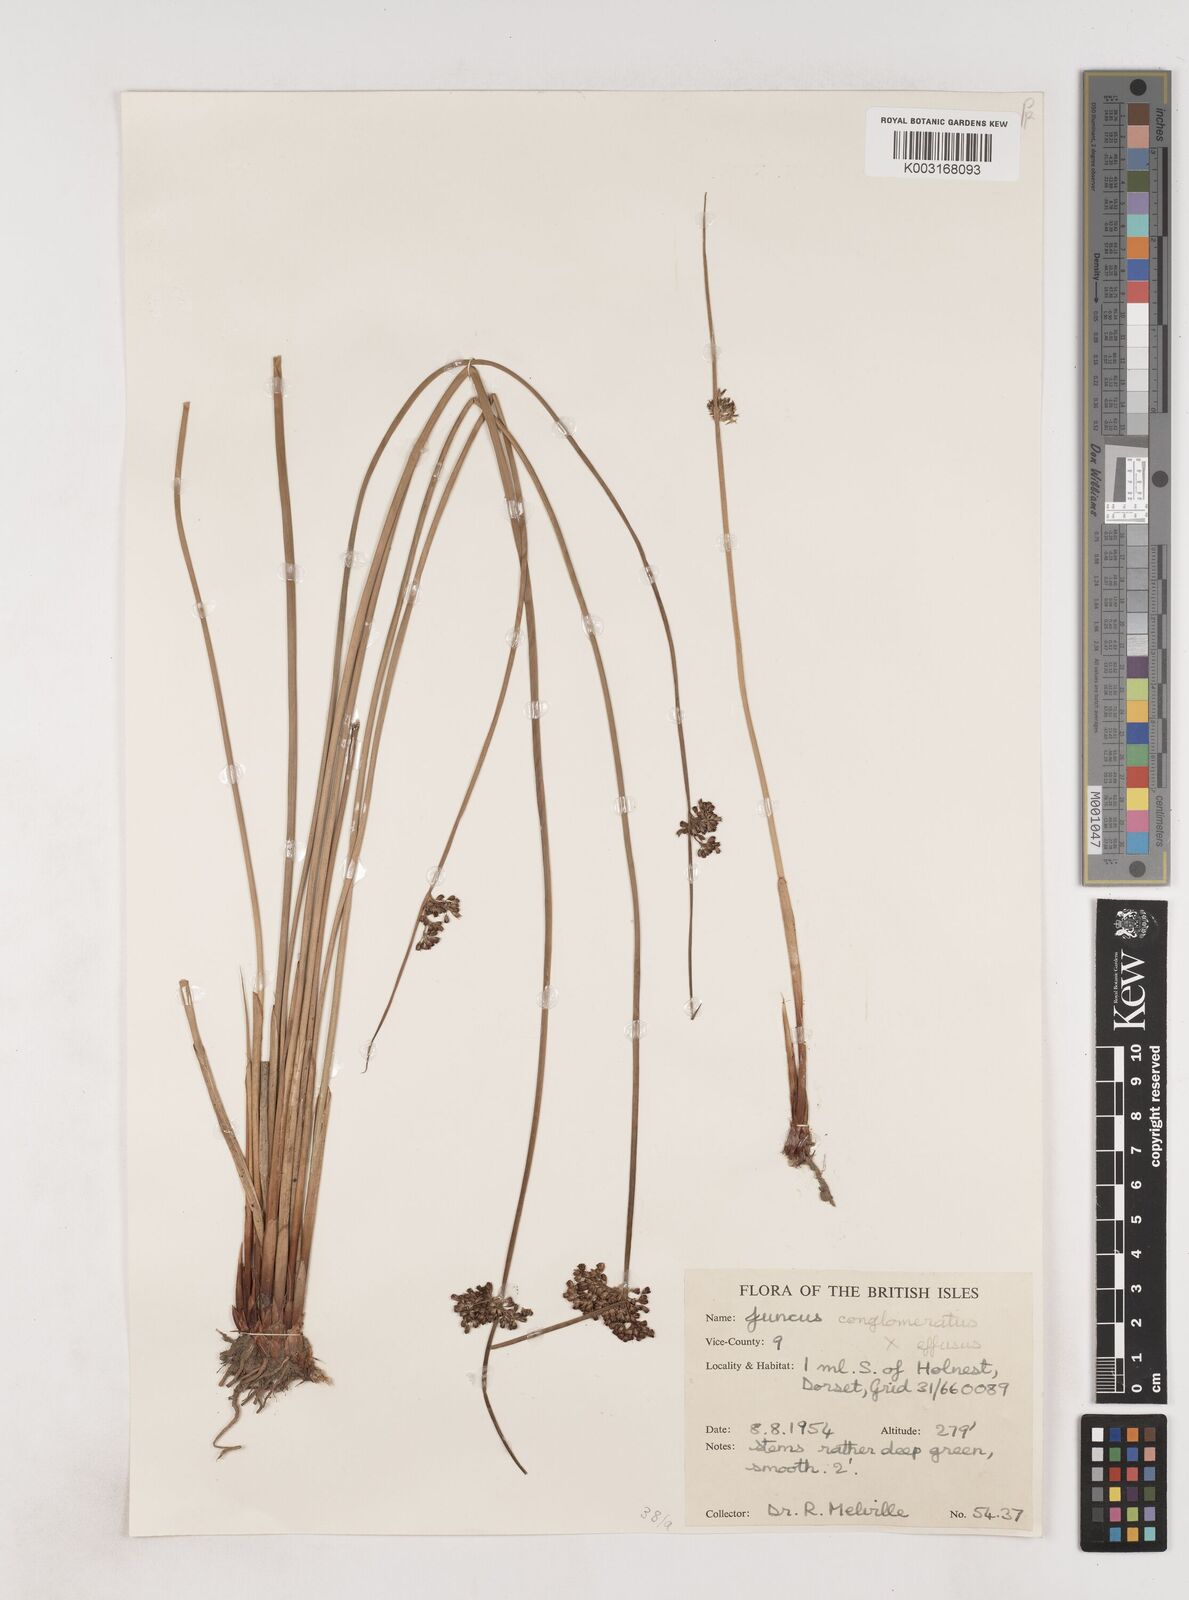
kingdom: Plantae
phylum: Tracheophyta
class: Liliopsida
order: Poales
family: Juncaceae
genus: Juncus
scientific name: Juncus conglomeratus
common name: Compact rush
